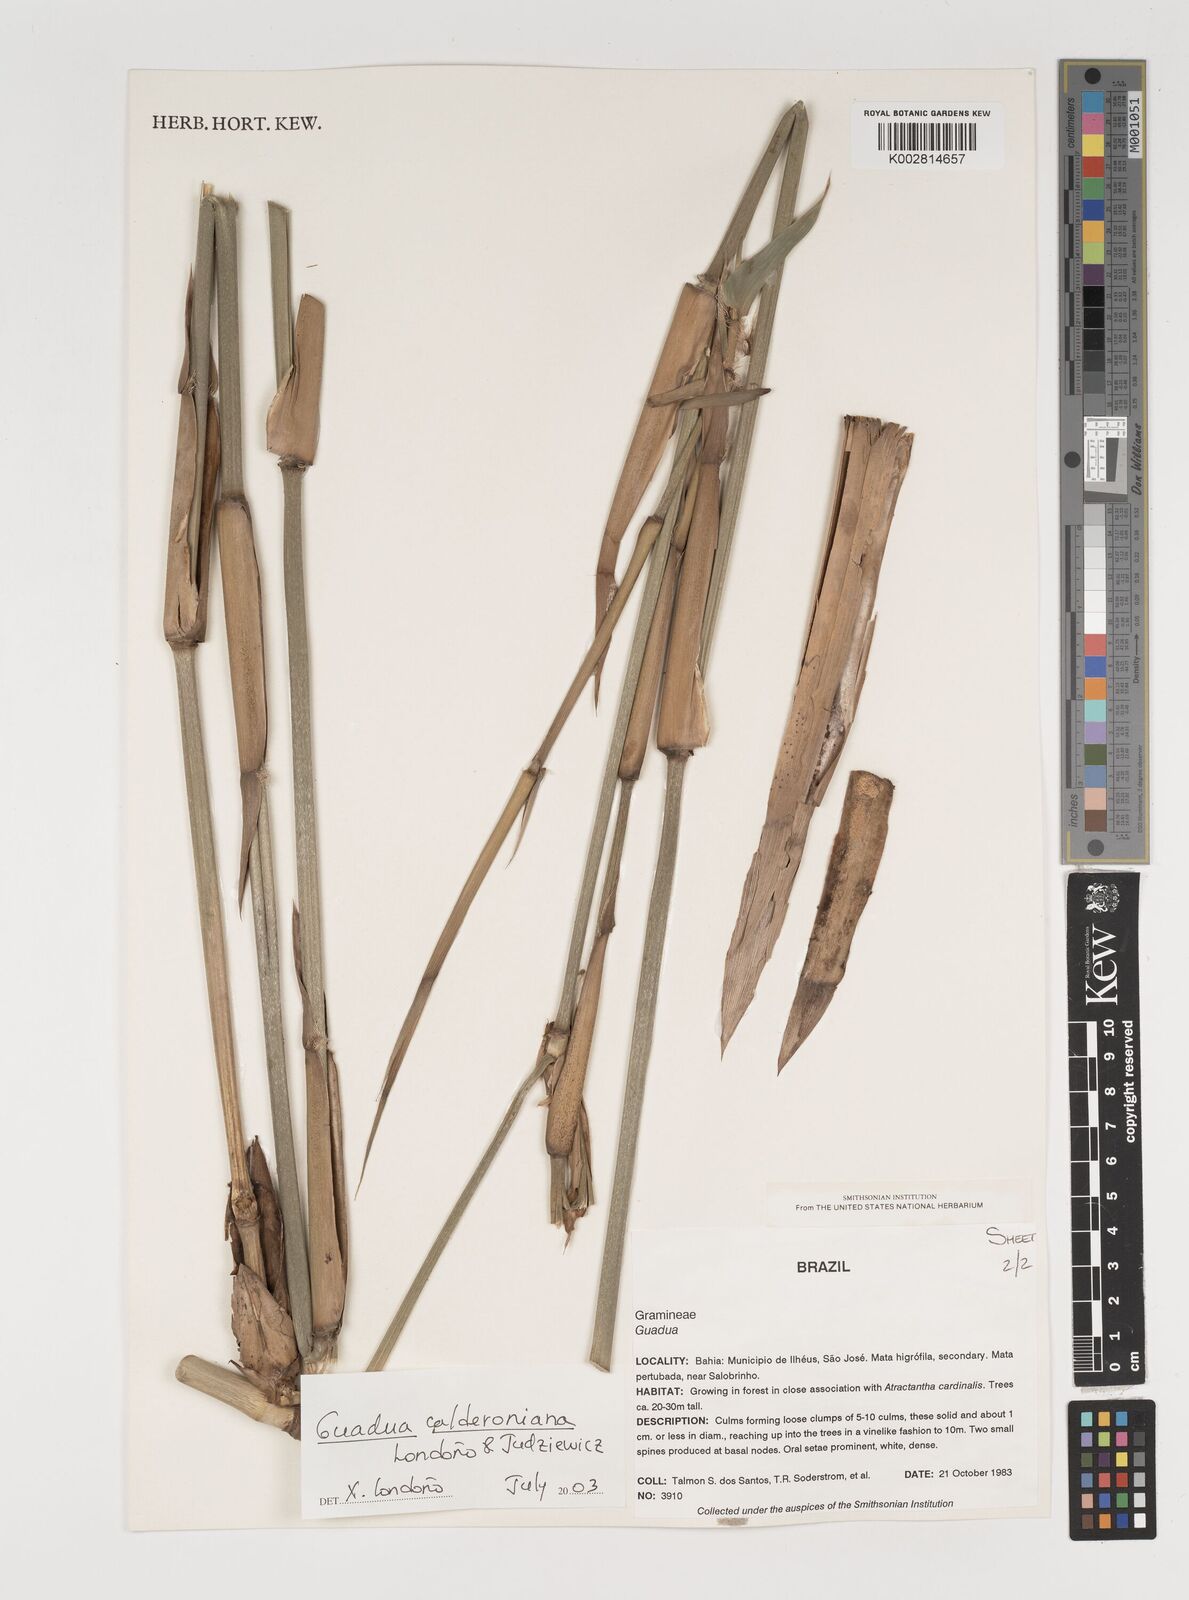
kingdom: Plantae
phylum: Tracheophyta
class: Liliopsida
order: Poales
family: Poaceae
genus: Guadua
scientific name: Guadua calderoniana
